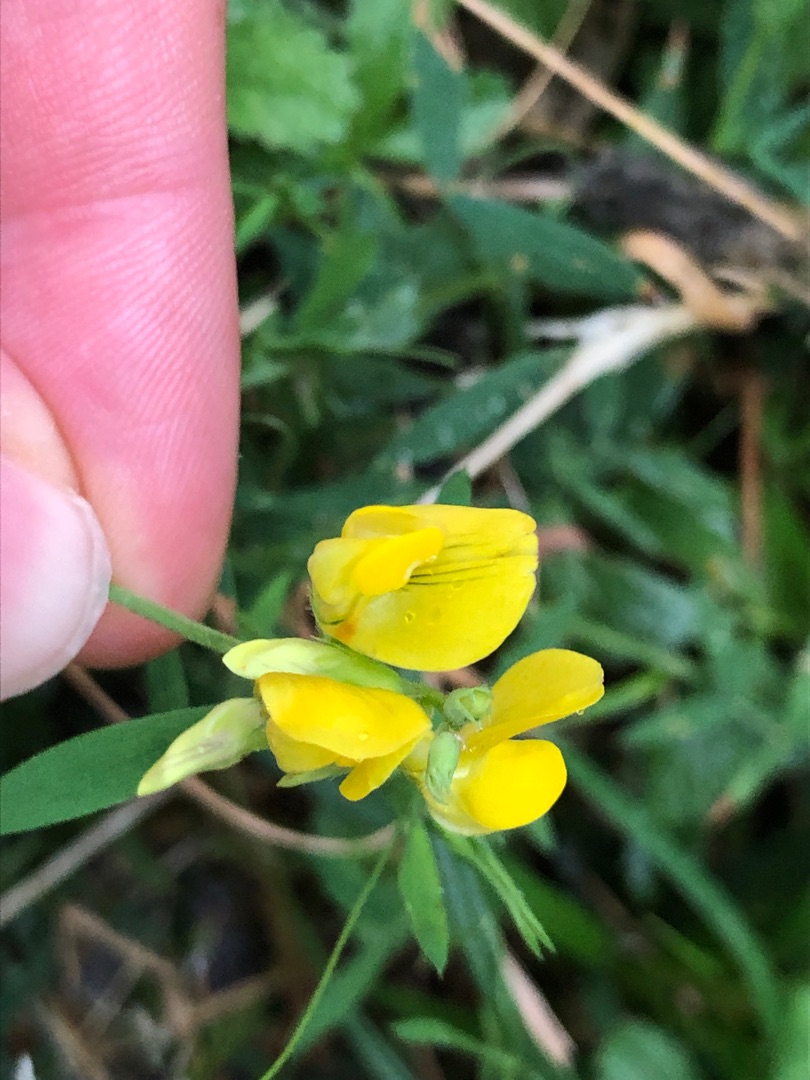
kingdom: Plantae
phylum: Tracheophyta
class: Magnoliopsida
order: Fabales
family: Fabaceae
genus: Lathyrus
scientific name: Lathyrus pratensis
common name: Gul fladbælg
